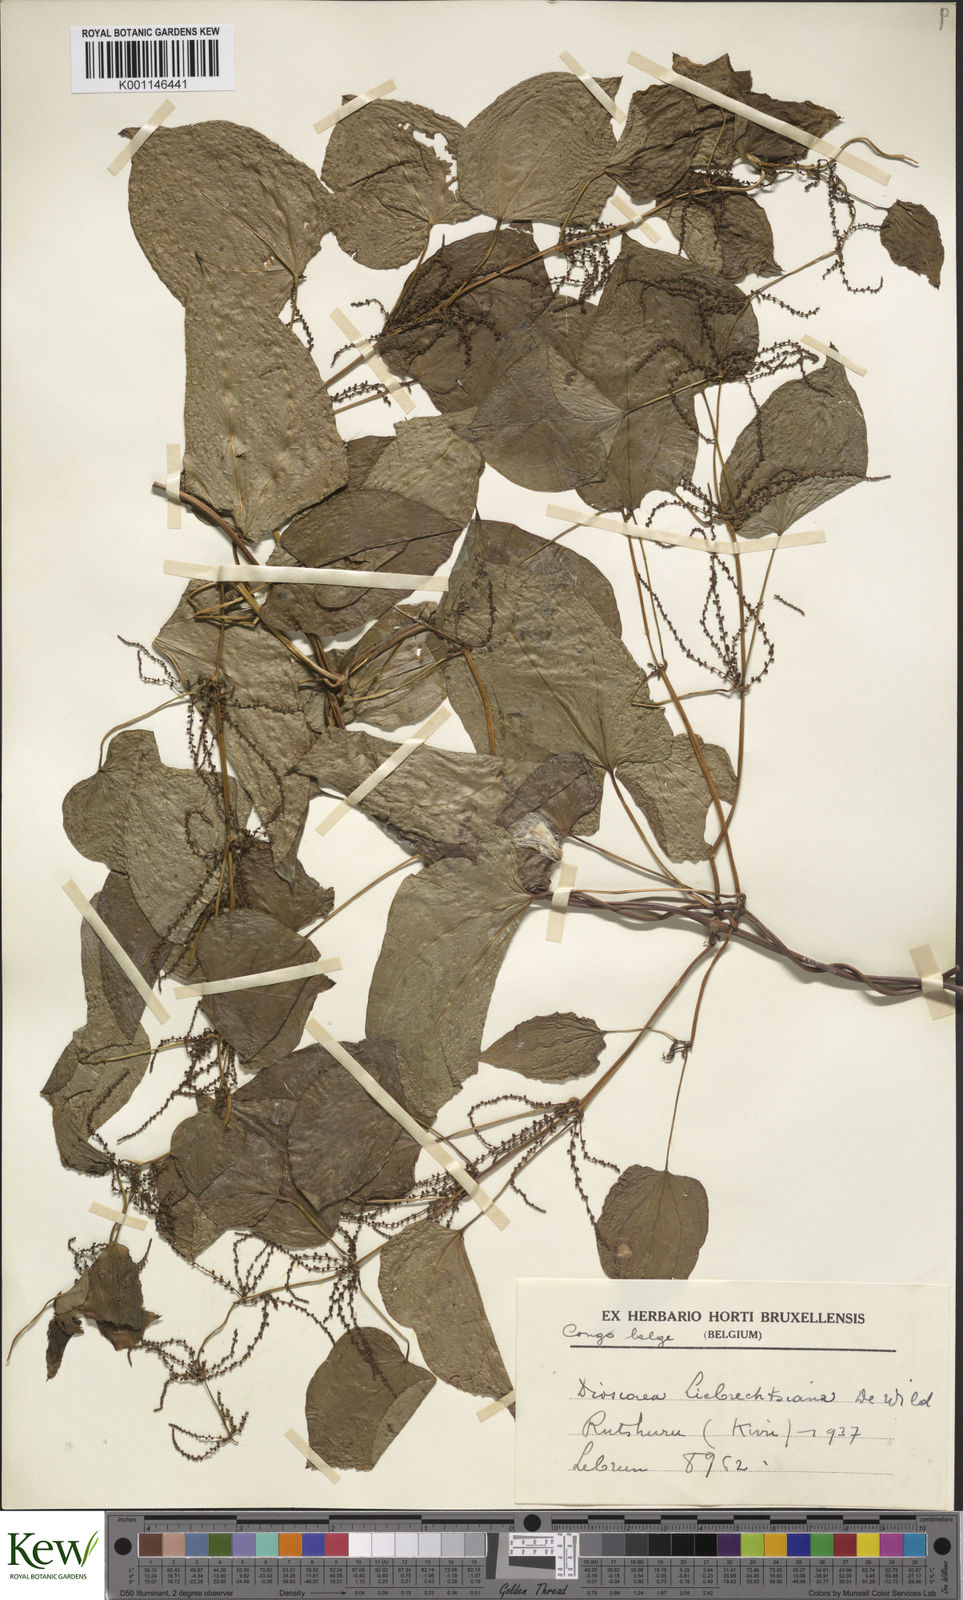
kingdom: Plantae
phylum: Tracheophyta
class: Liliopsida
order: Dioscoreales
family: Dioscoreaceae
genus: Dioscorea
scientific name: Dioscorea praehensilis
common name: Bush yam
